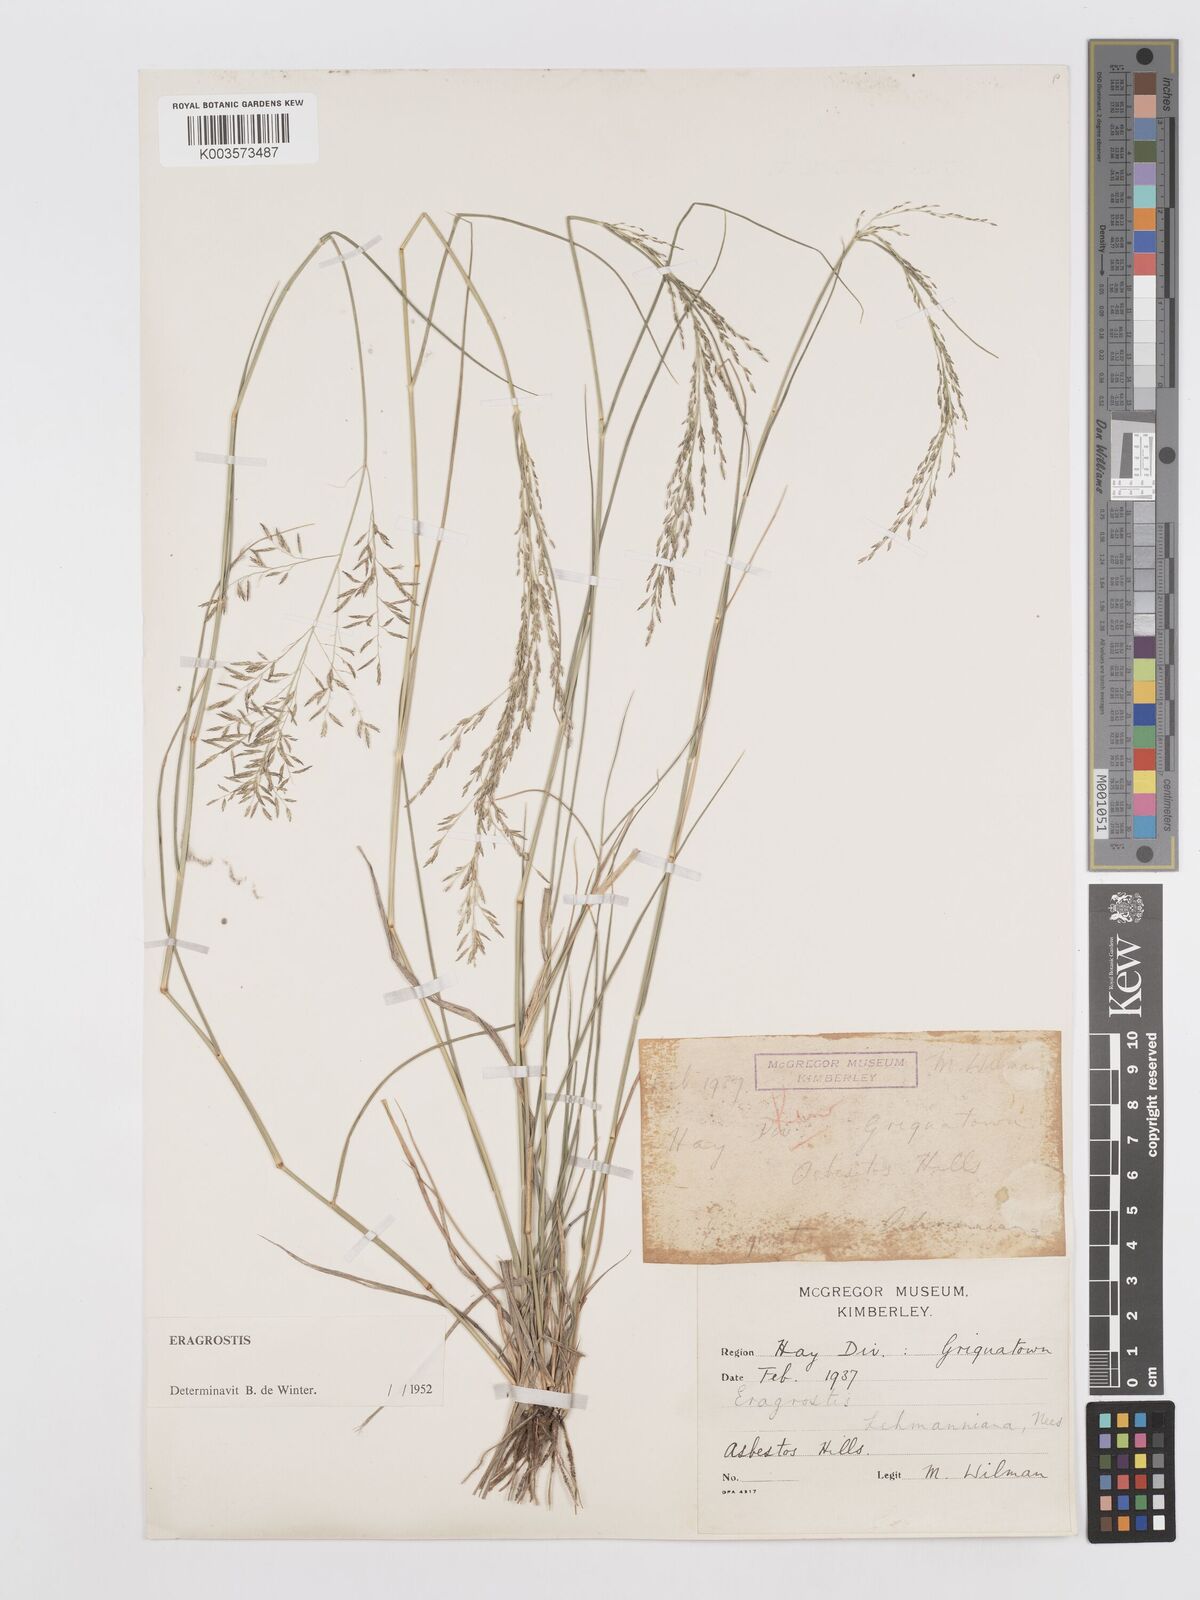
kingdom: Plantae
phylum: Tracheophyta
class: Liliopsida
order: Poales
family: Poaceae
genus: Eragrostis
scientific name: Eragrostis lehmanniana
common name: Lehmann lovegrass
